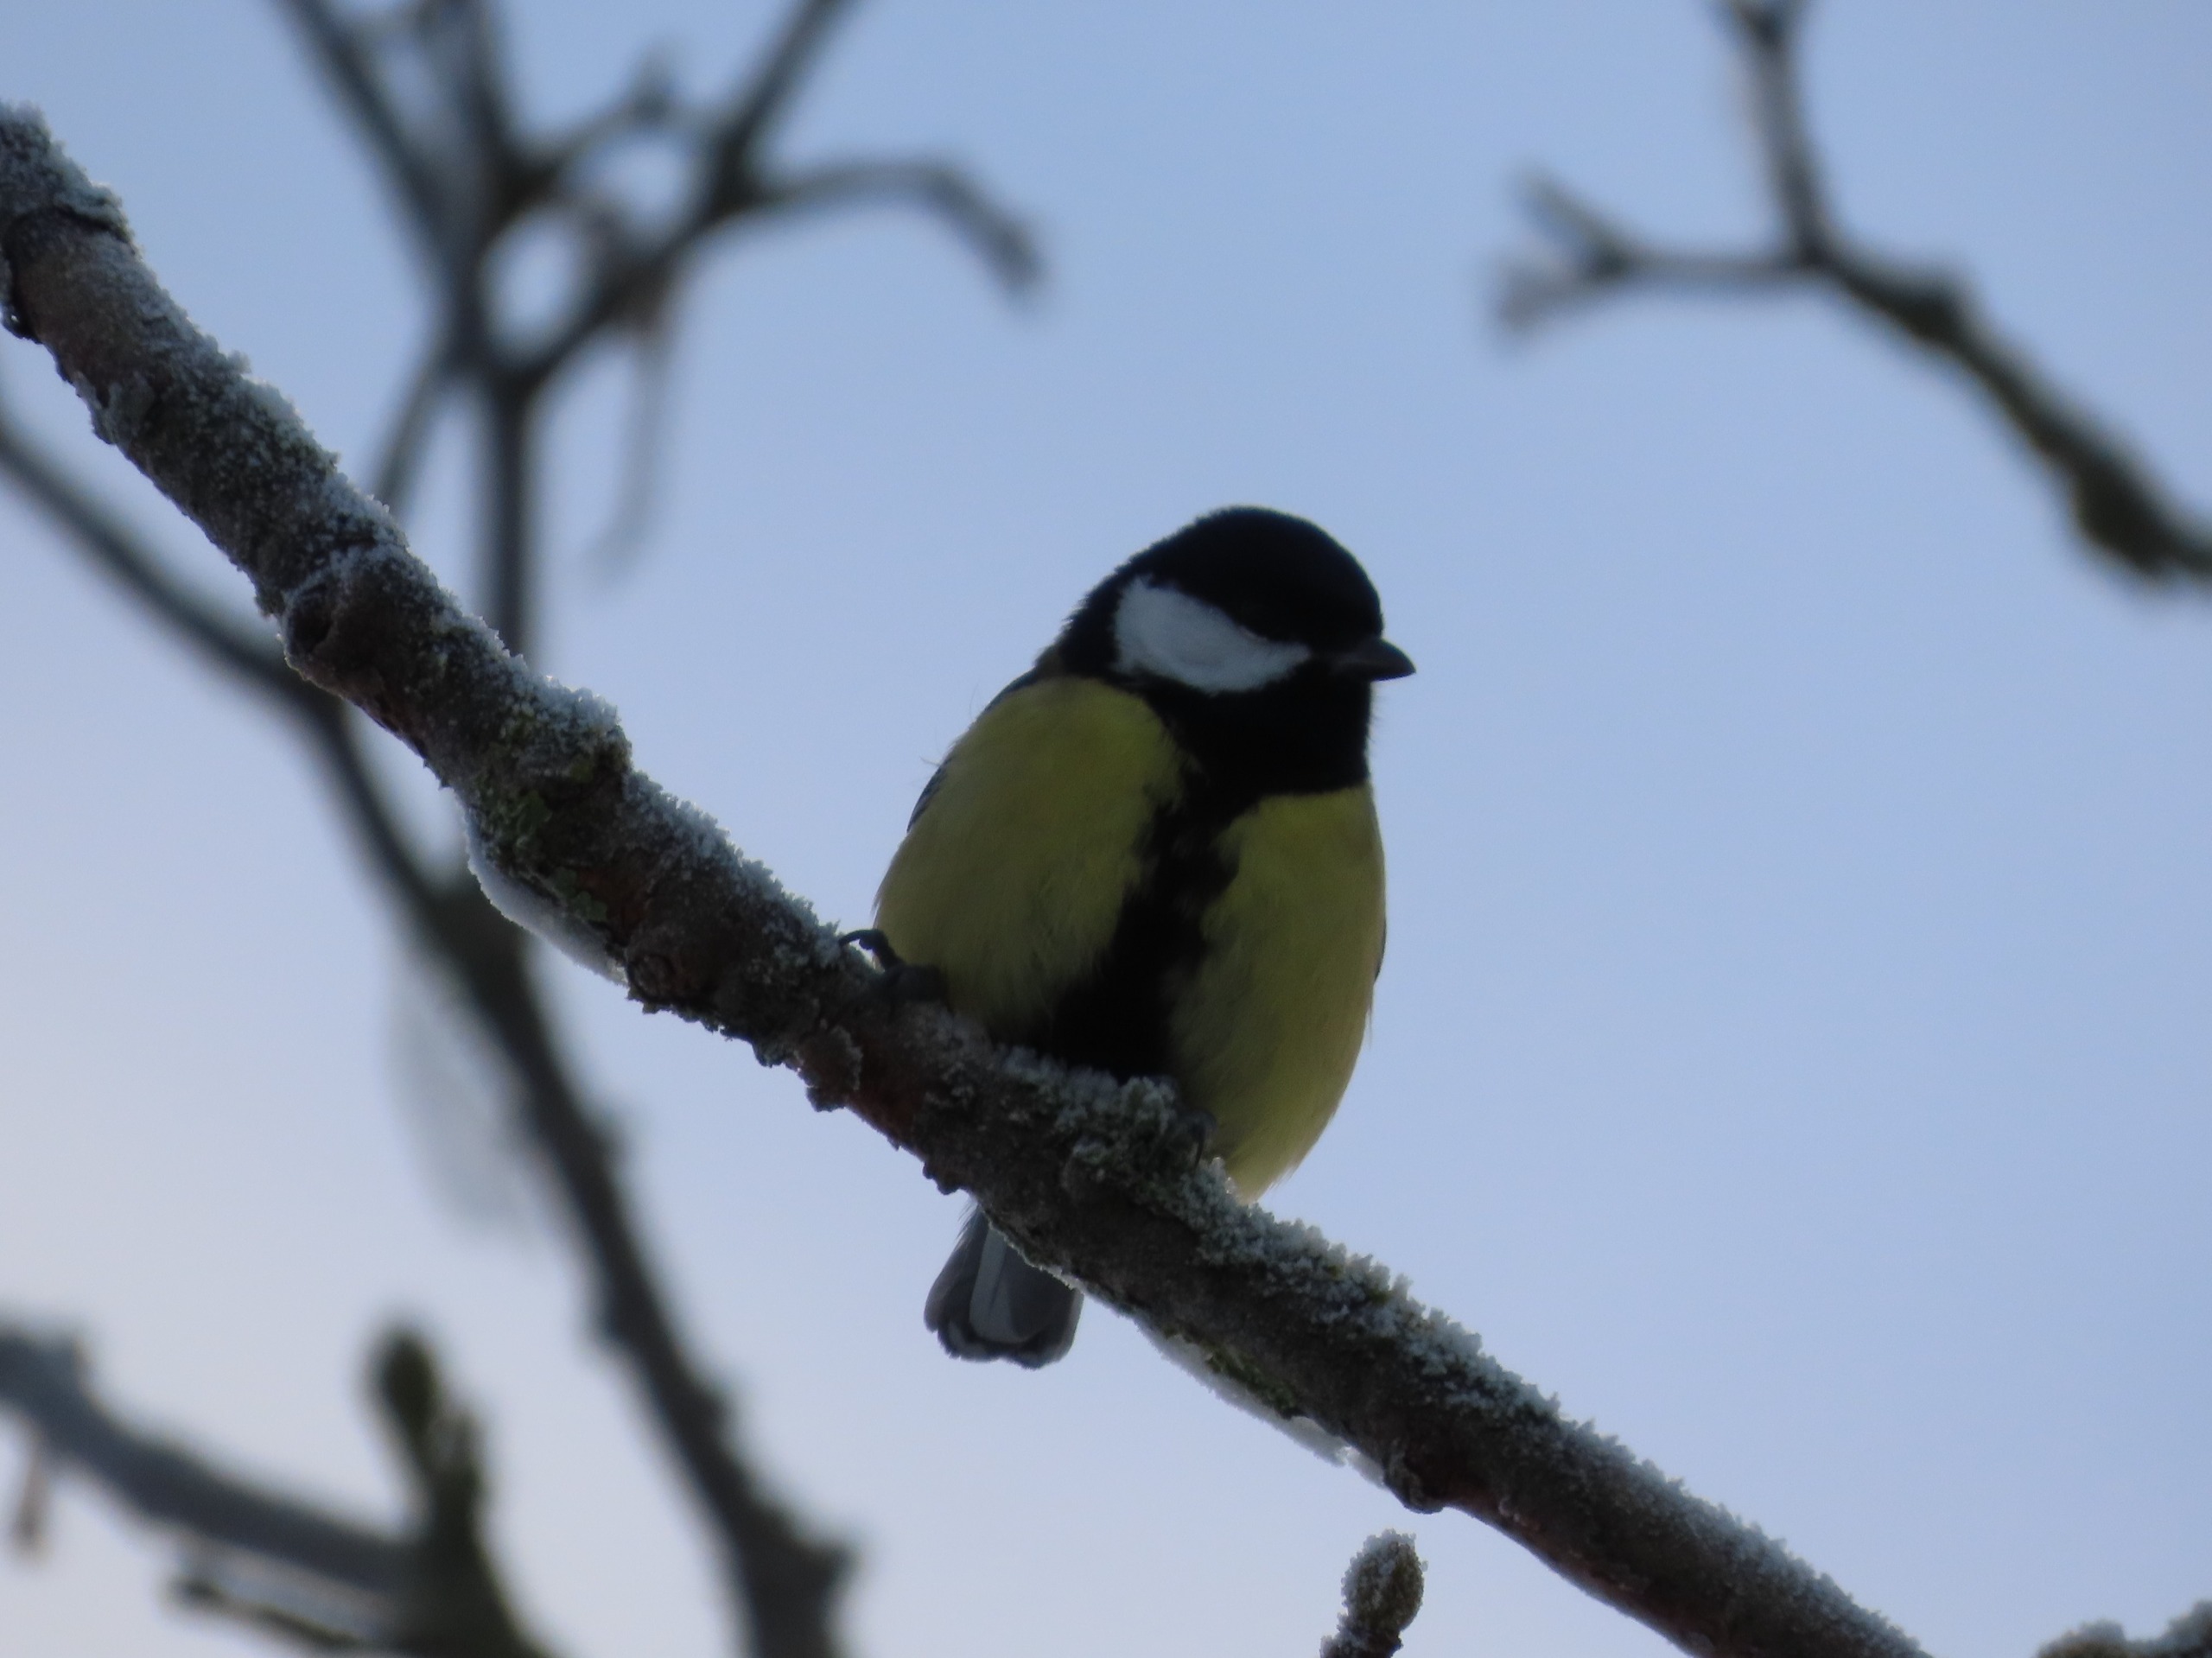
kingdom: Animalia
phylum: Chordata
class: Aves
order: Passeriformes
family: Paridae
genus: Parus
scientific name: Parus major
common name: Musvit
